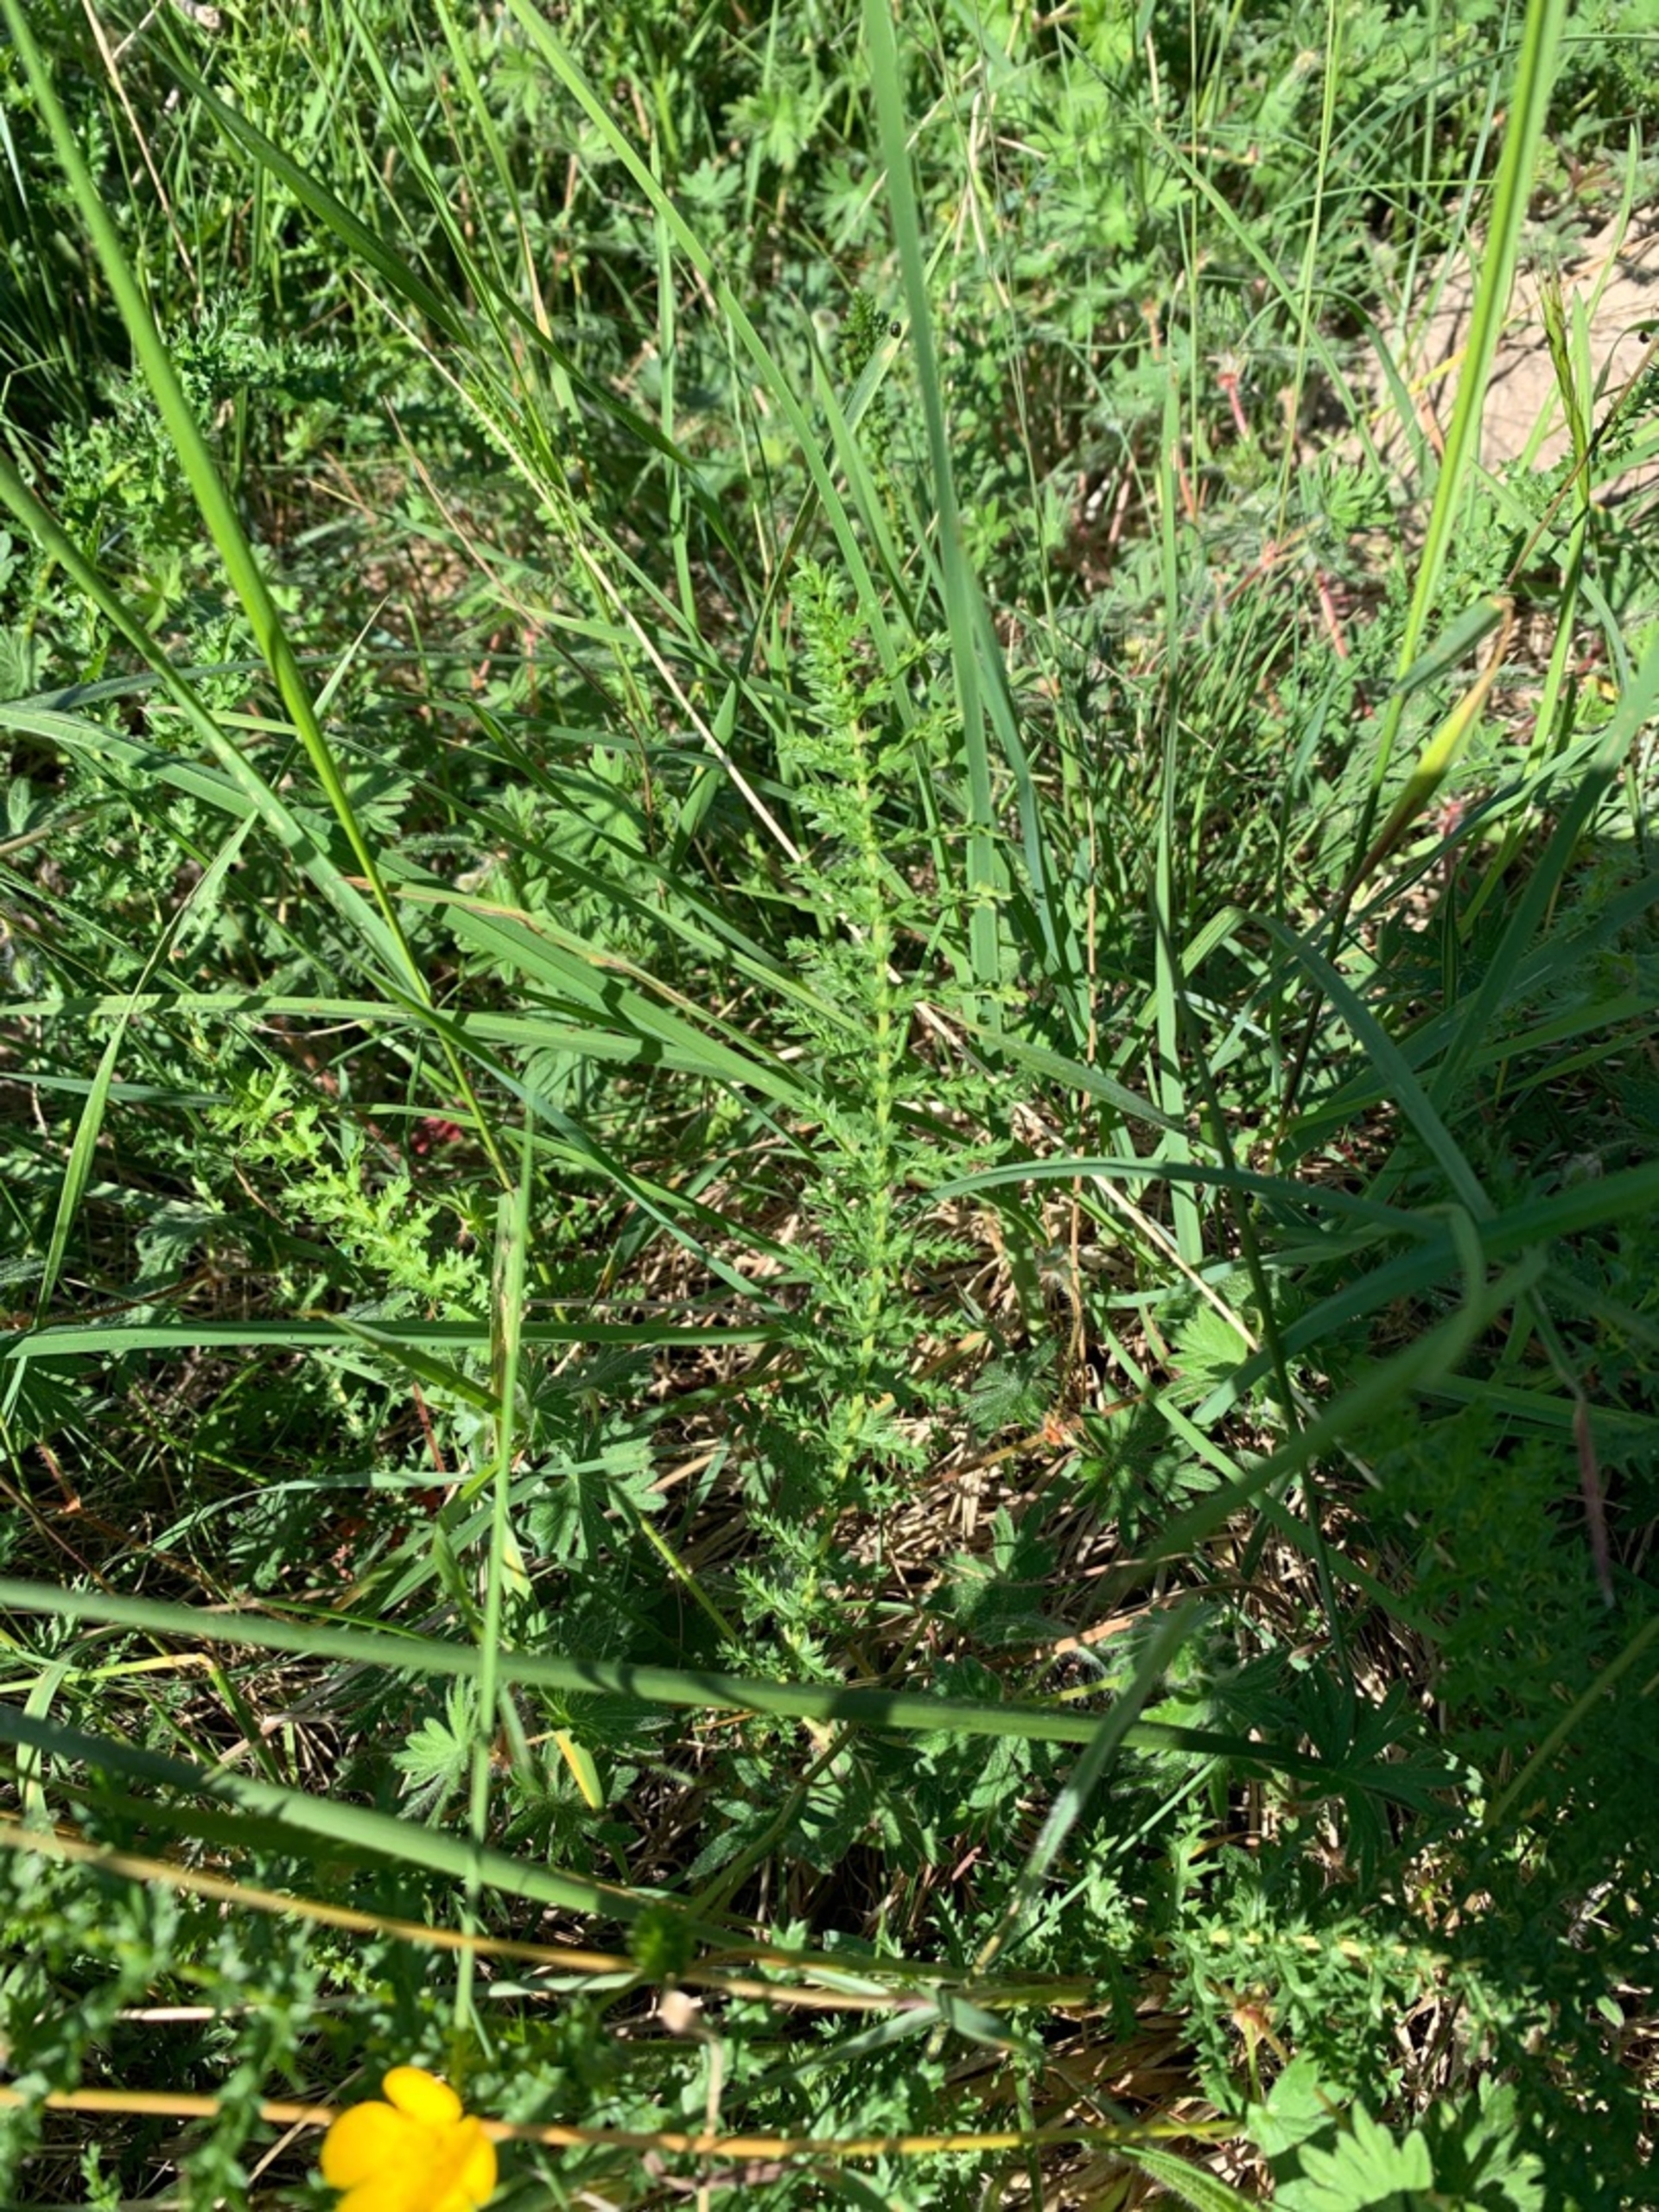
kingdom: Plantae
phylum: Tracheophyta
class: Magnoliopsida
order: Rosales
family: Rosaceae
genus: Filipendula
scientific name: Filipendula vulgaris
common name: Knoldet mjødurt
